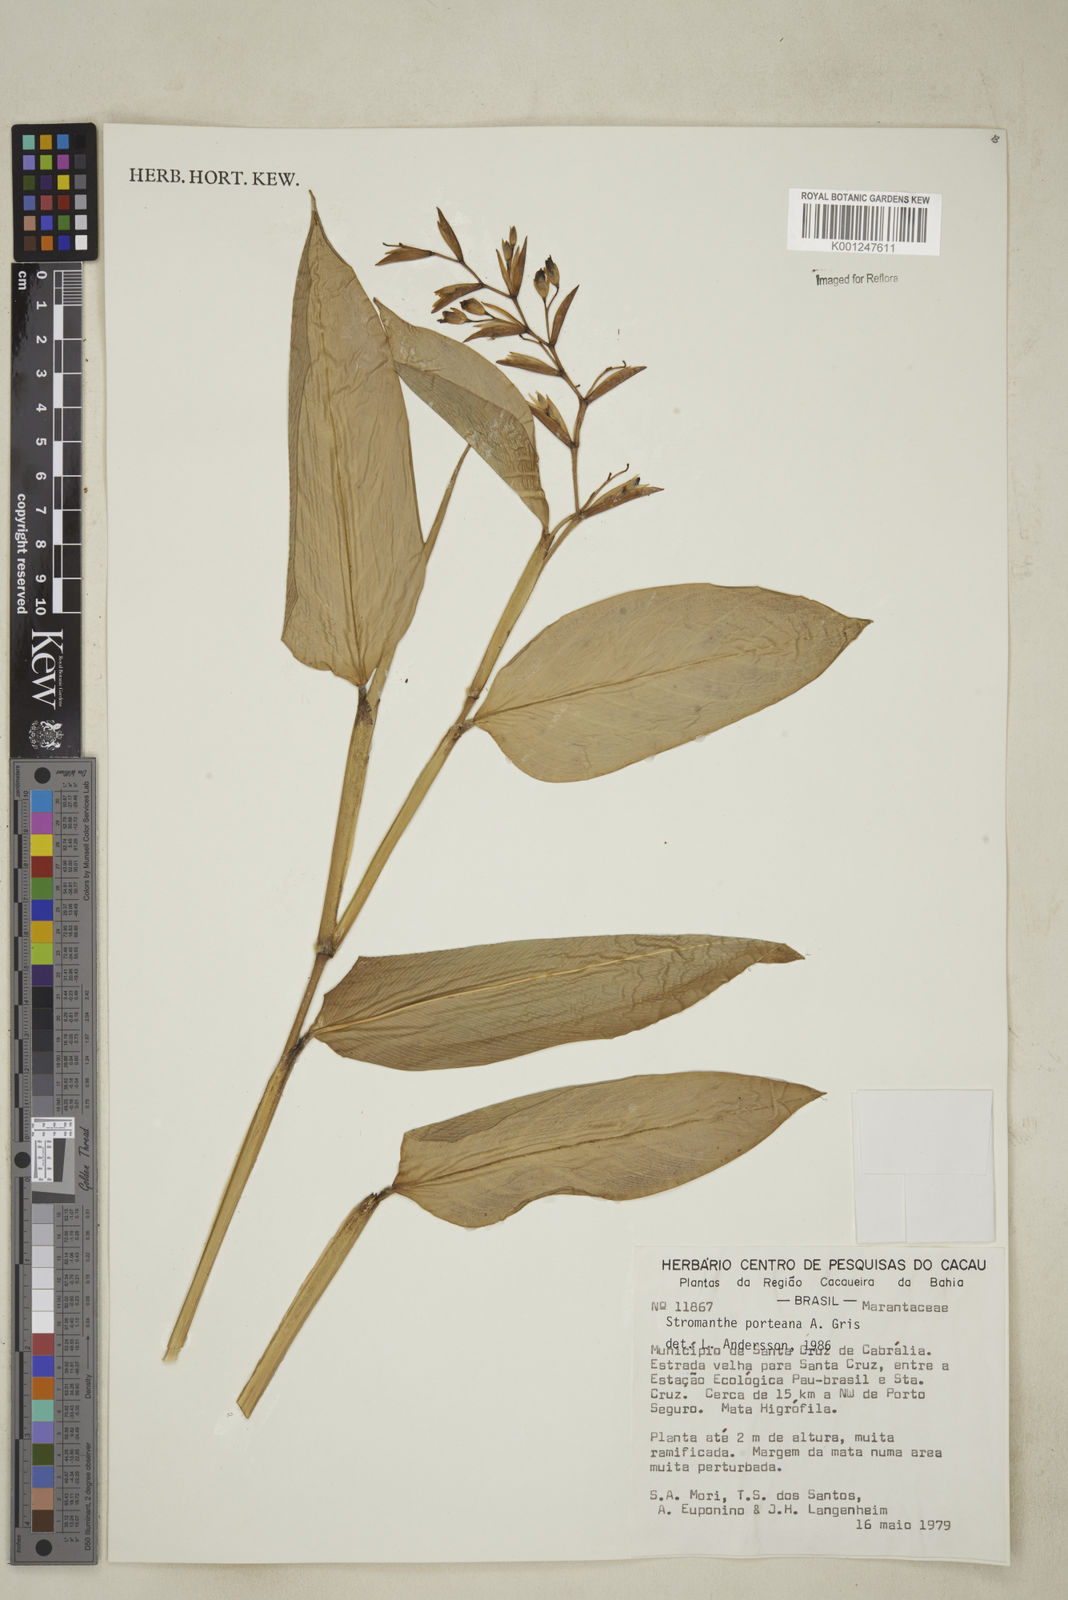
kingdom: Plantae
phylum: Tracheophyta
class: Liliopsida
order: Zingiberales
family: Marantaceae
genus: Stromanthe
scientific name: Stromanthe porteana
